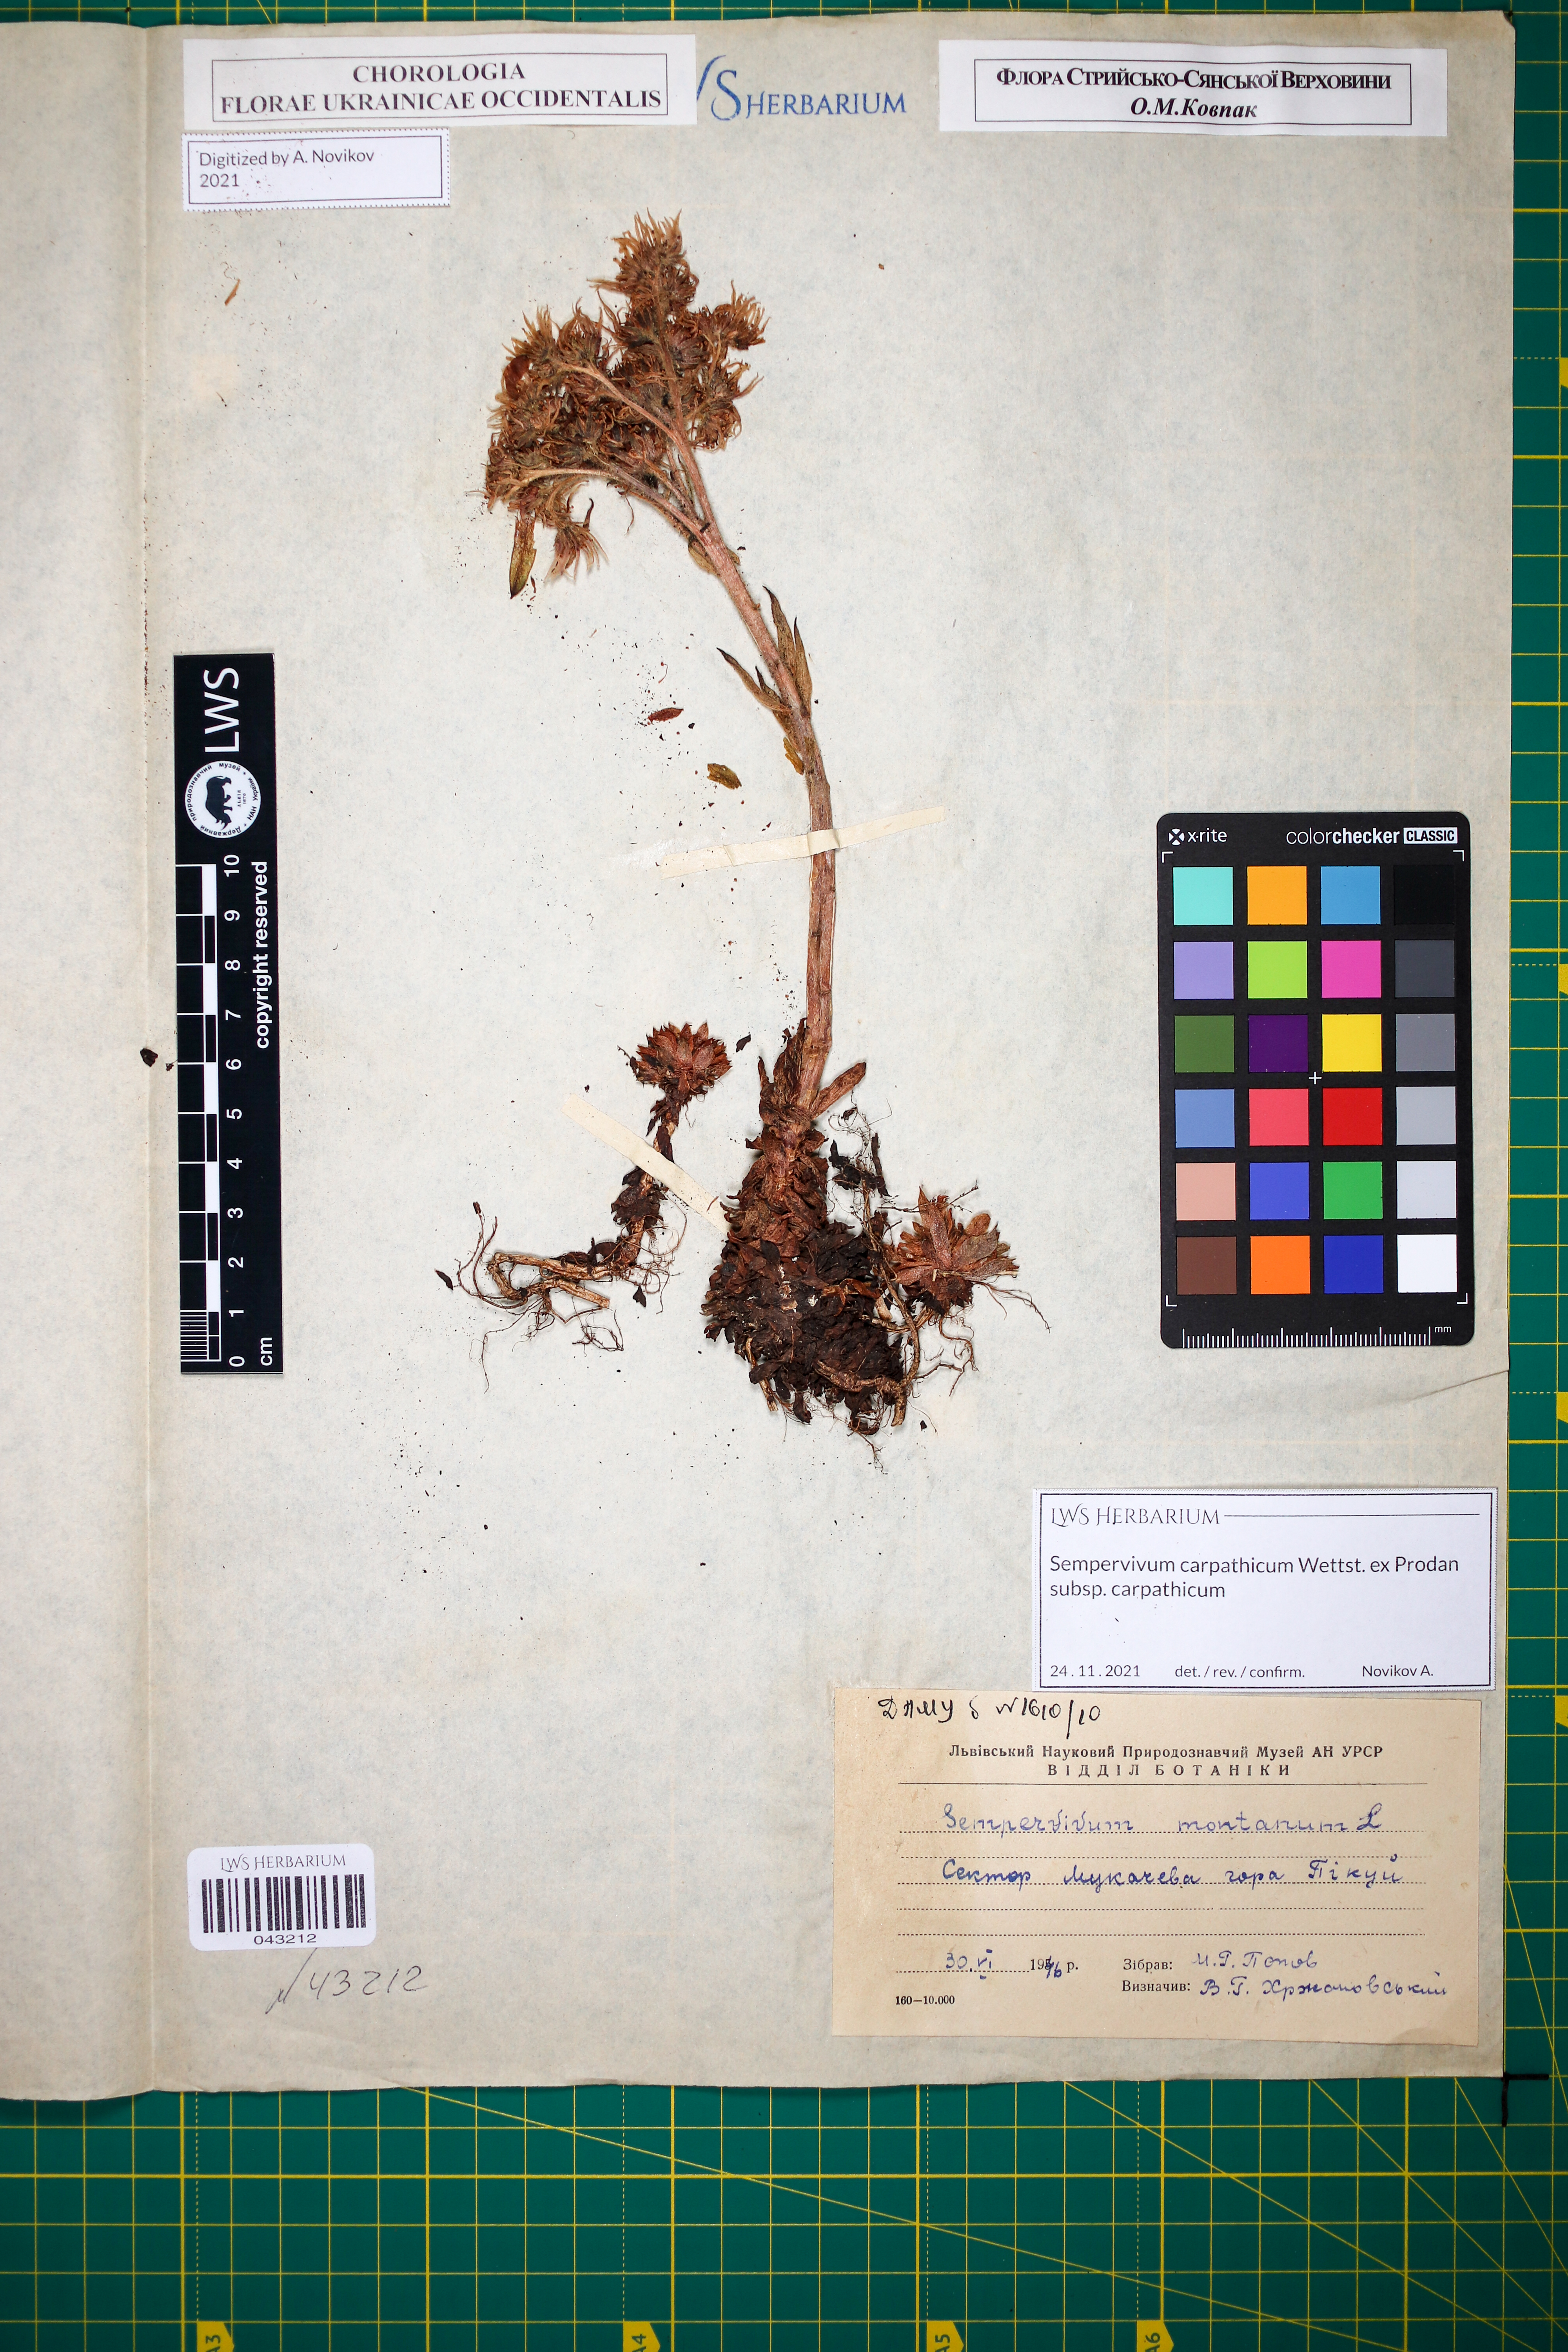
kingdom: Plantae
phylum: Tracheophyta
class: Magnoliopsida
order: Saxifragales
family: Crassulaceae
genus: Sempervivum
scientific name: Sempervivum montanum
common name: Mountain house-leek
